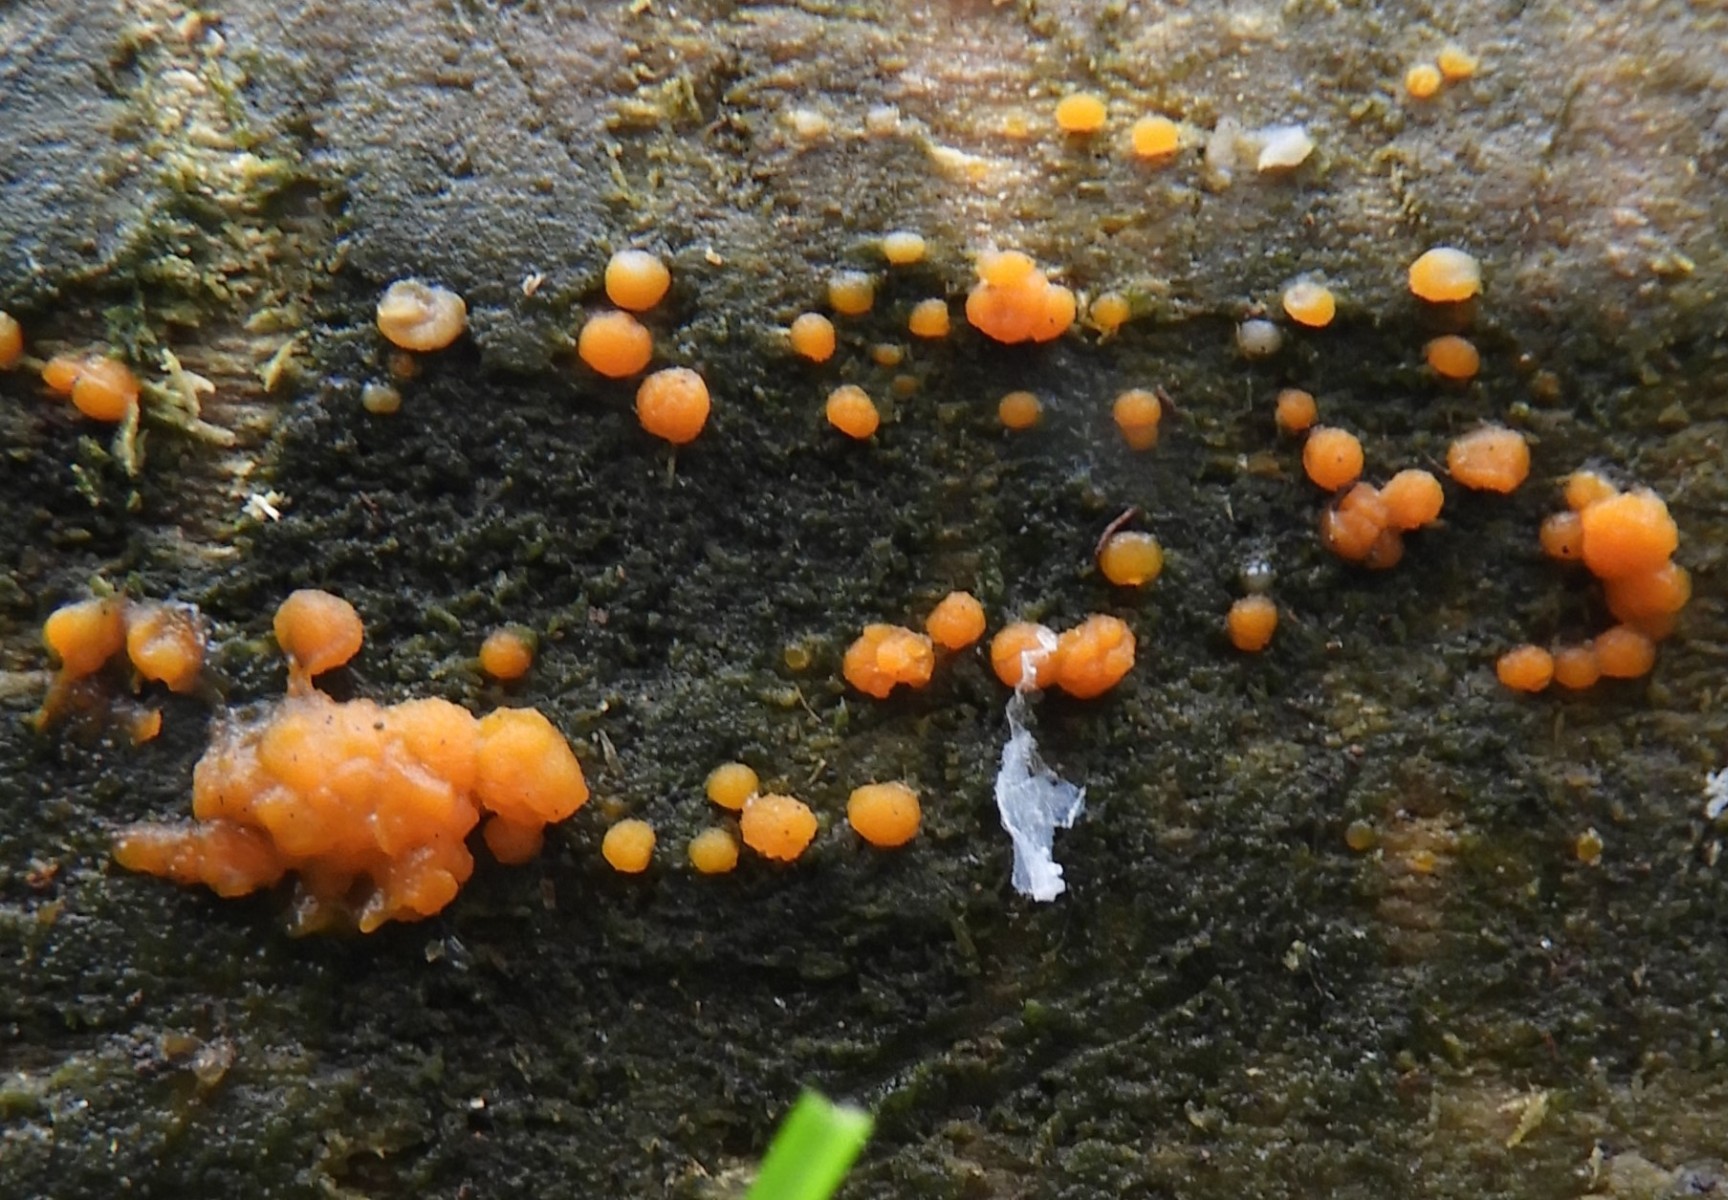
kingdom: Fungi
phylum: Basidiomycota
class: Dacrymycetes
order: Dacrymycetales
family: Dacrymycetaceae
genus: Dacrymyces
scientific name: Dacrymyces stillatus
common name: almindelig tåresvamp
